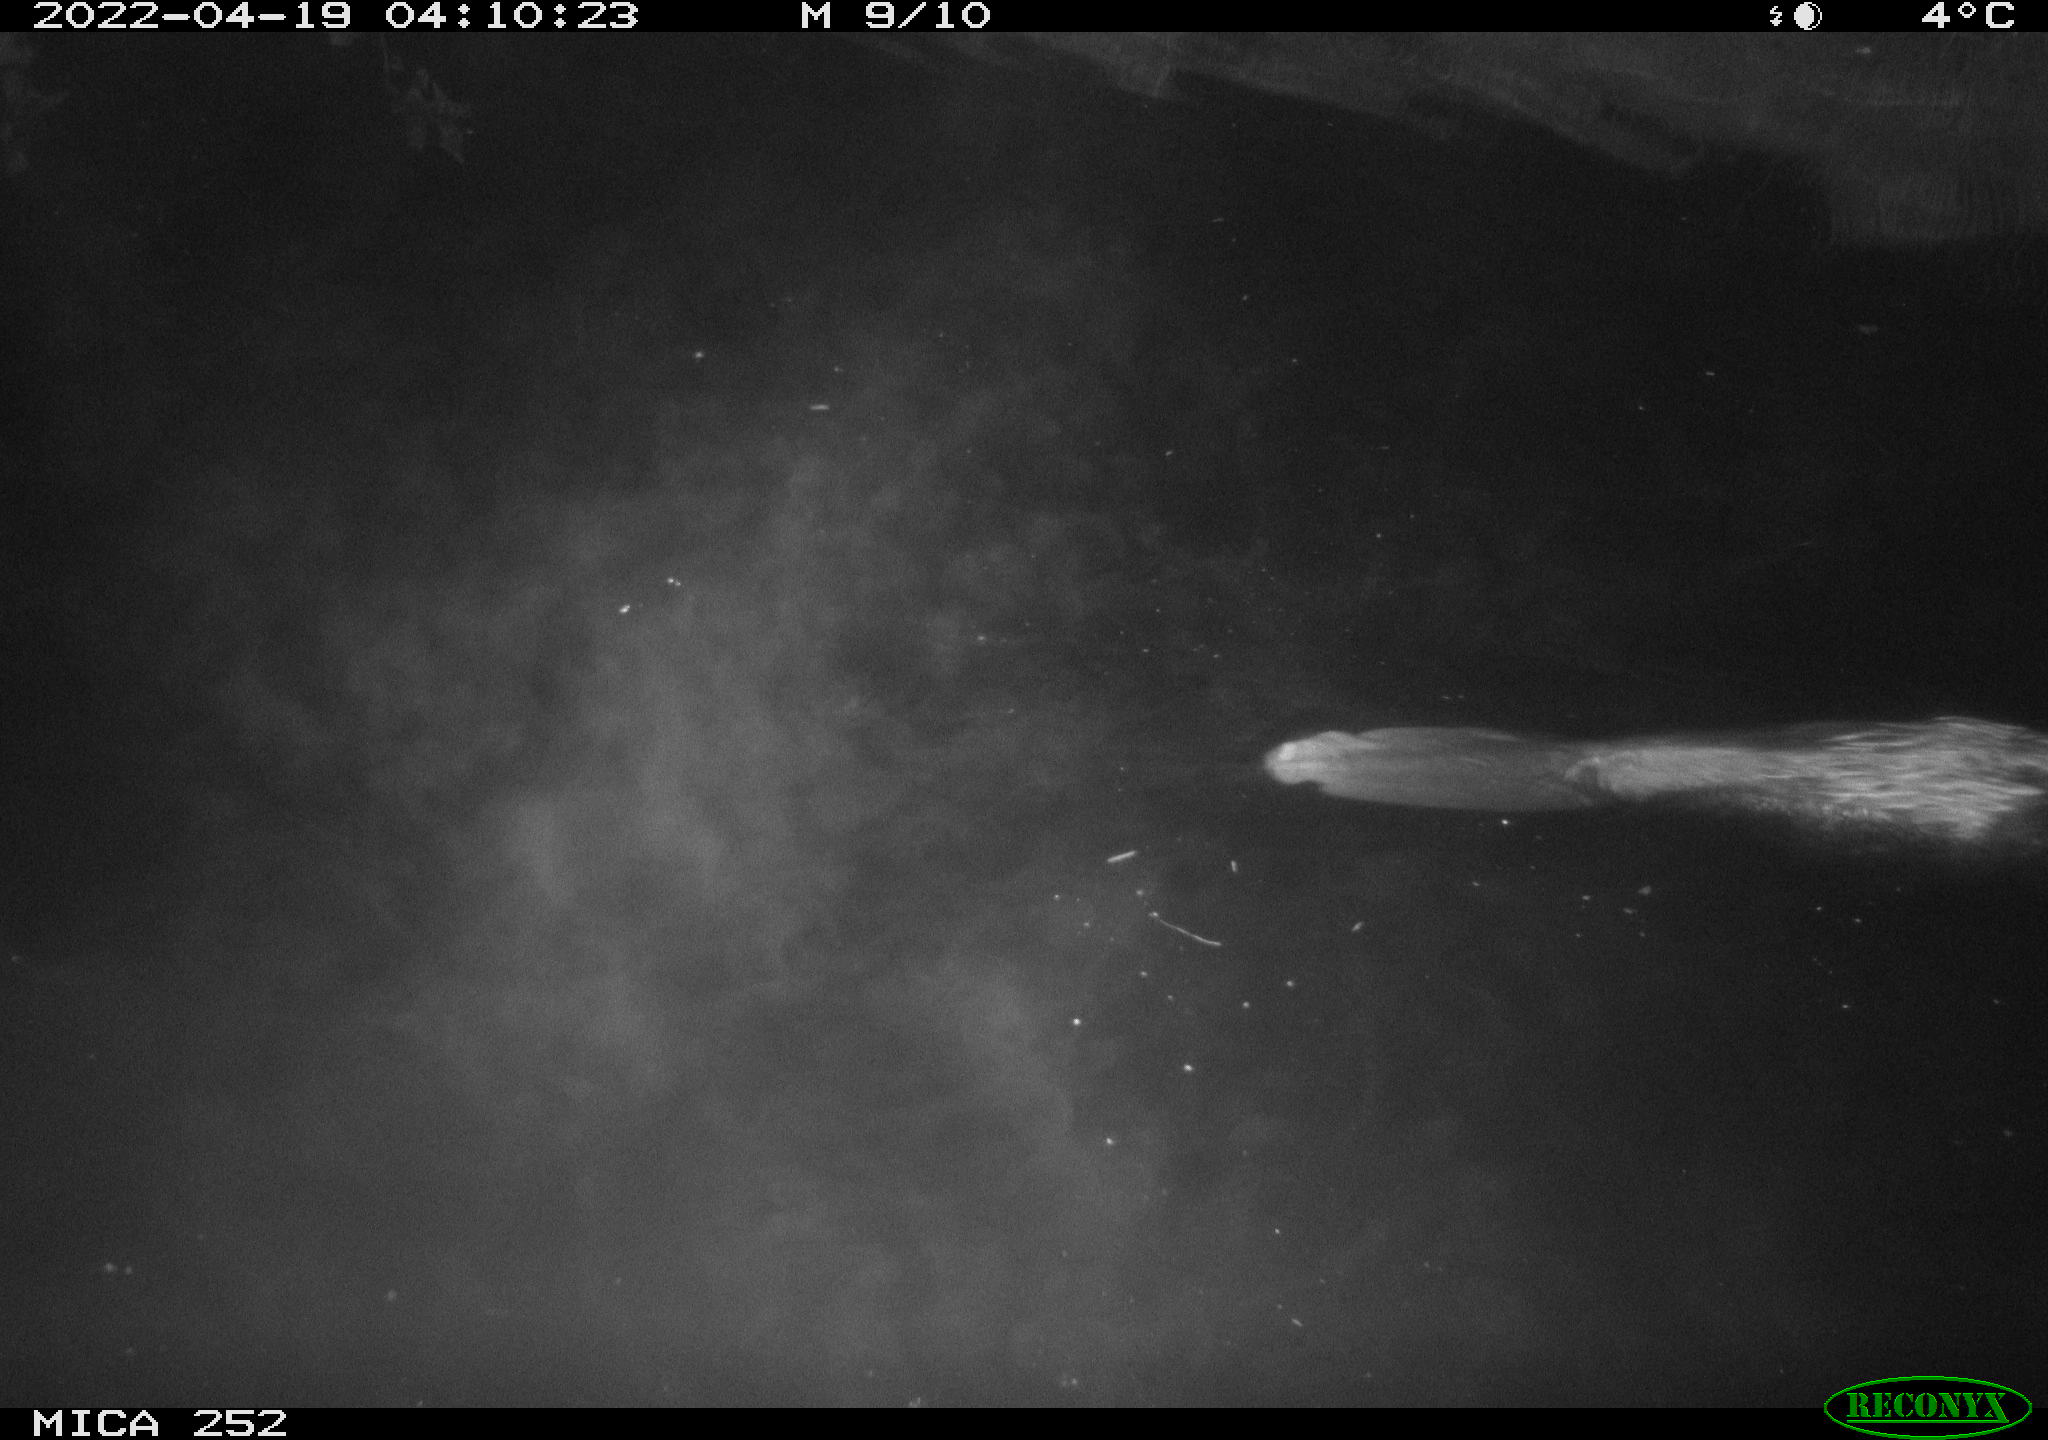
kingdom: Animalia
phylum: Chordata
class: Mammalia
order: Rodentia
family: Castoridae
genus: Castor
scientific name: Castor fiber
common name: Eurasian beaver
